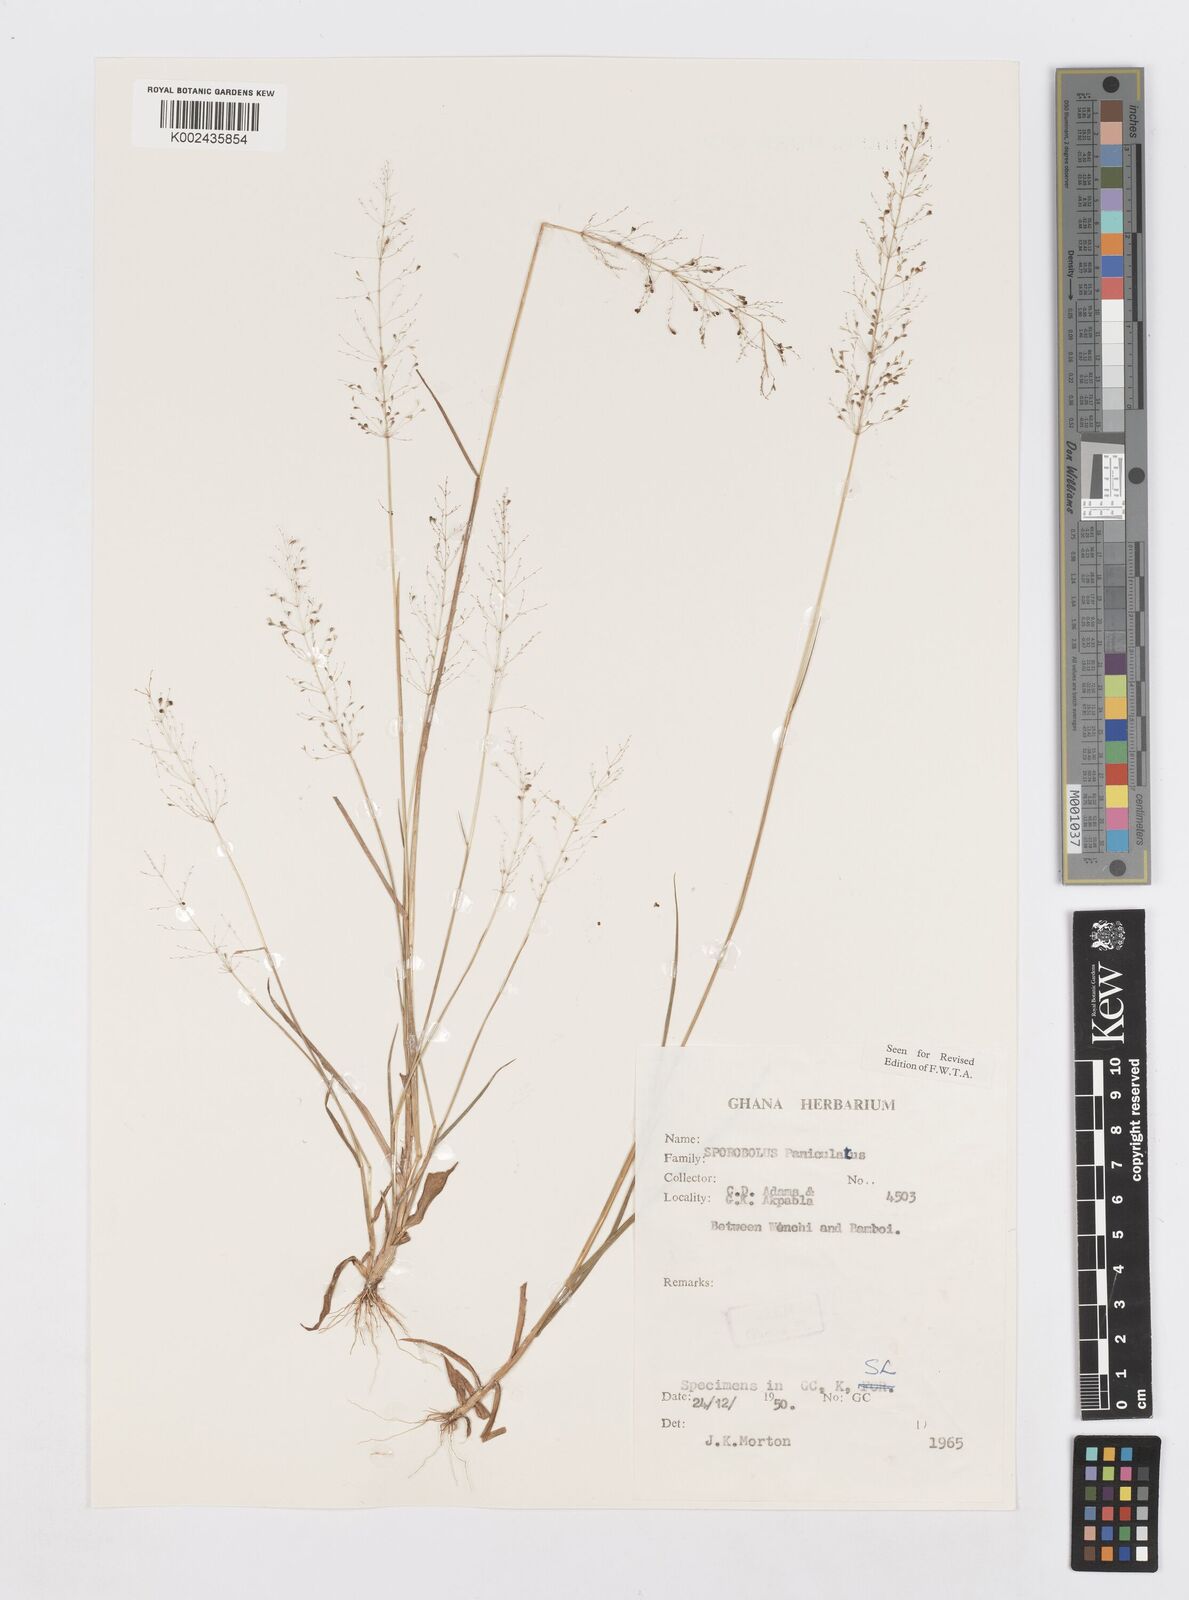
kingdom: Plantae
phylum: Tracheophyta
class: Liliopsida
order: Poales
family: Poaceae
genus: Sporobolus
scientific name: Sporobolus paniculatus
